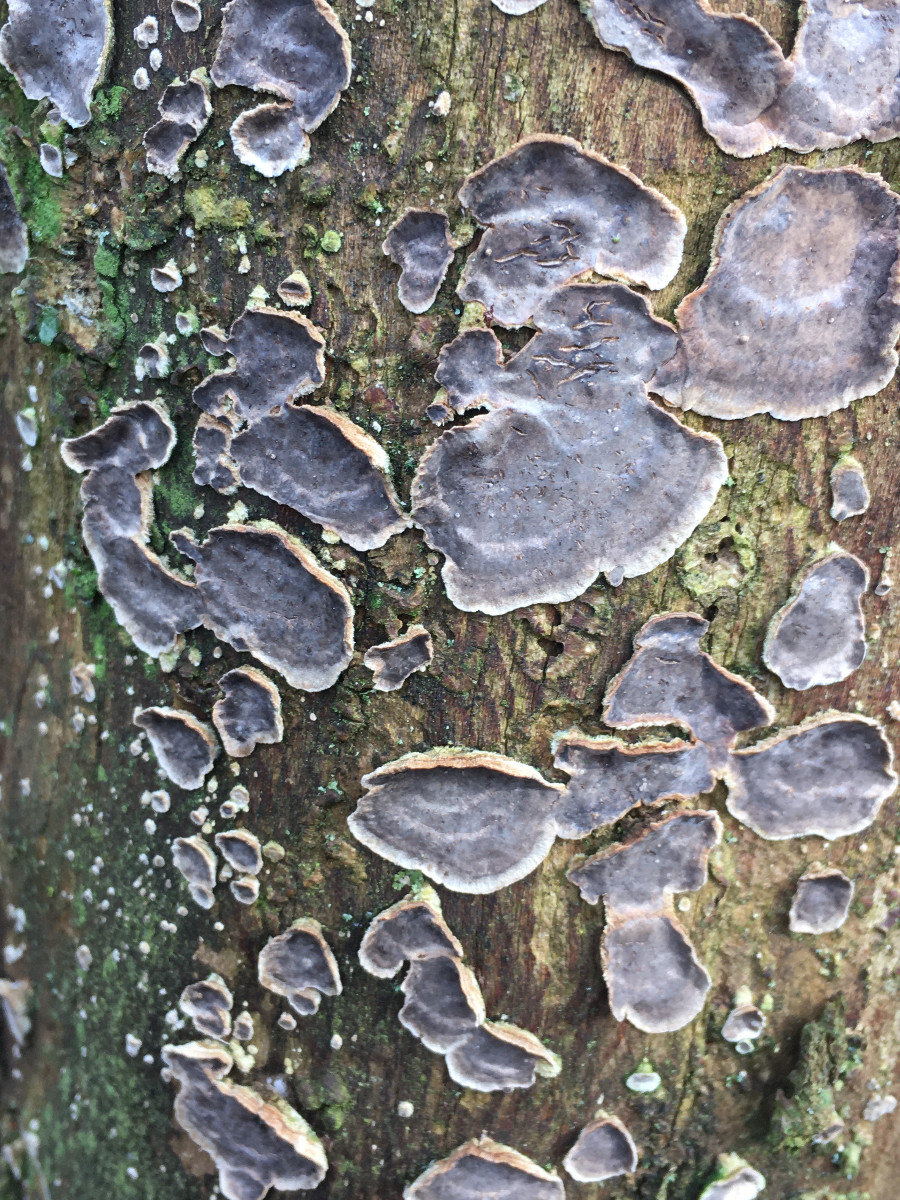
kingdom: Fungi
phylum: Basidiomycota
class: Agaricomycetes
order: Corticiales
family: Corticiaceae
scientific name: Corticiaceae
